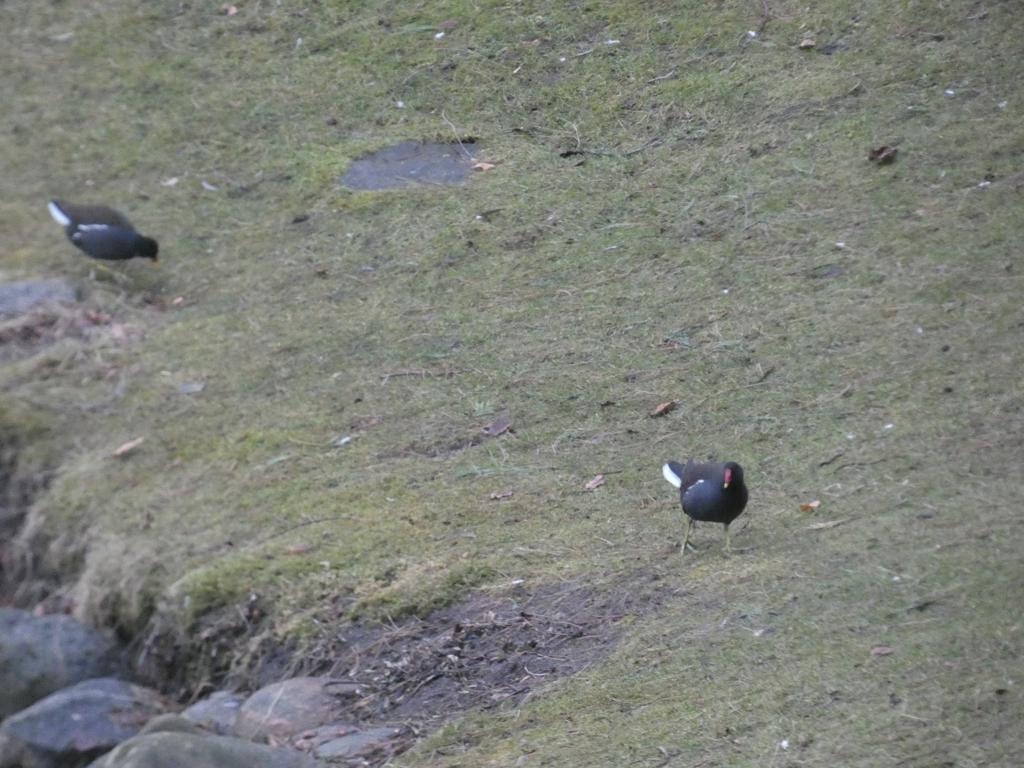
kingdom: Animalia
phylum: Chordata
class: Aves
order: Gruiformes
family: Rallidae
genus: Gallinula
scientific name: Gallinula chloropus
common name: Grønbenet rørhøne
